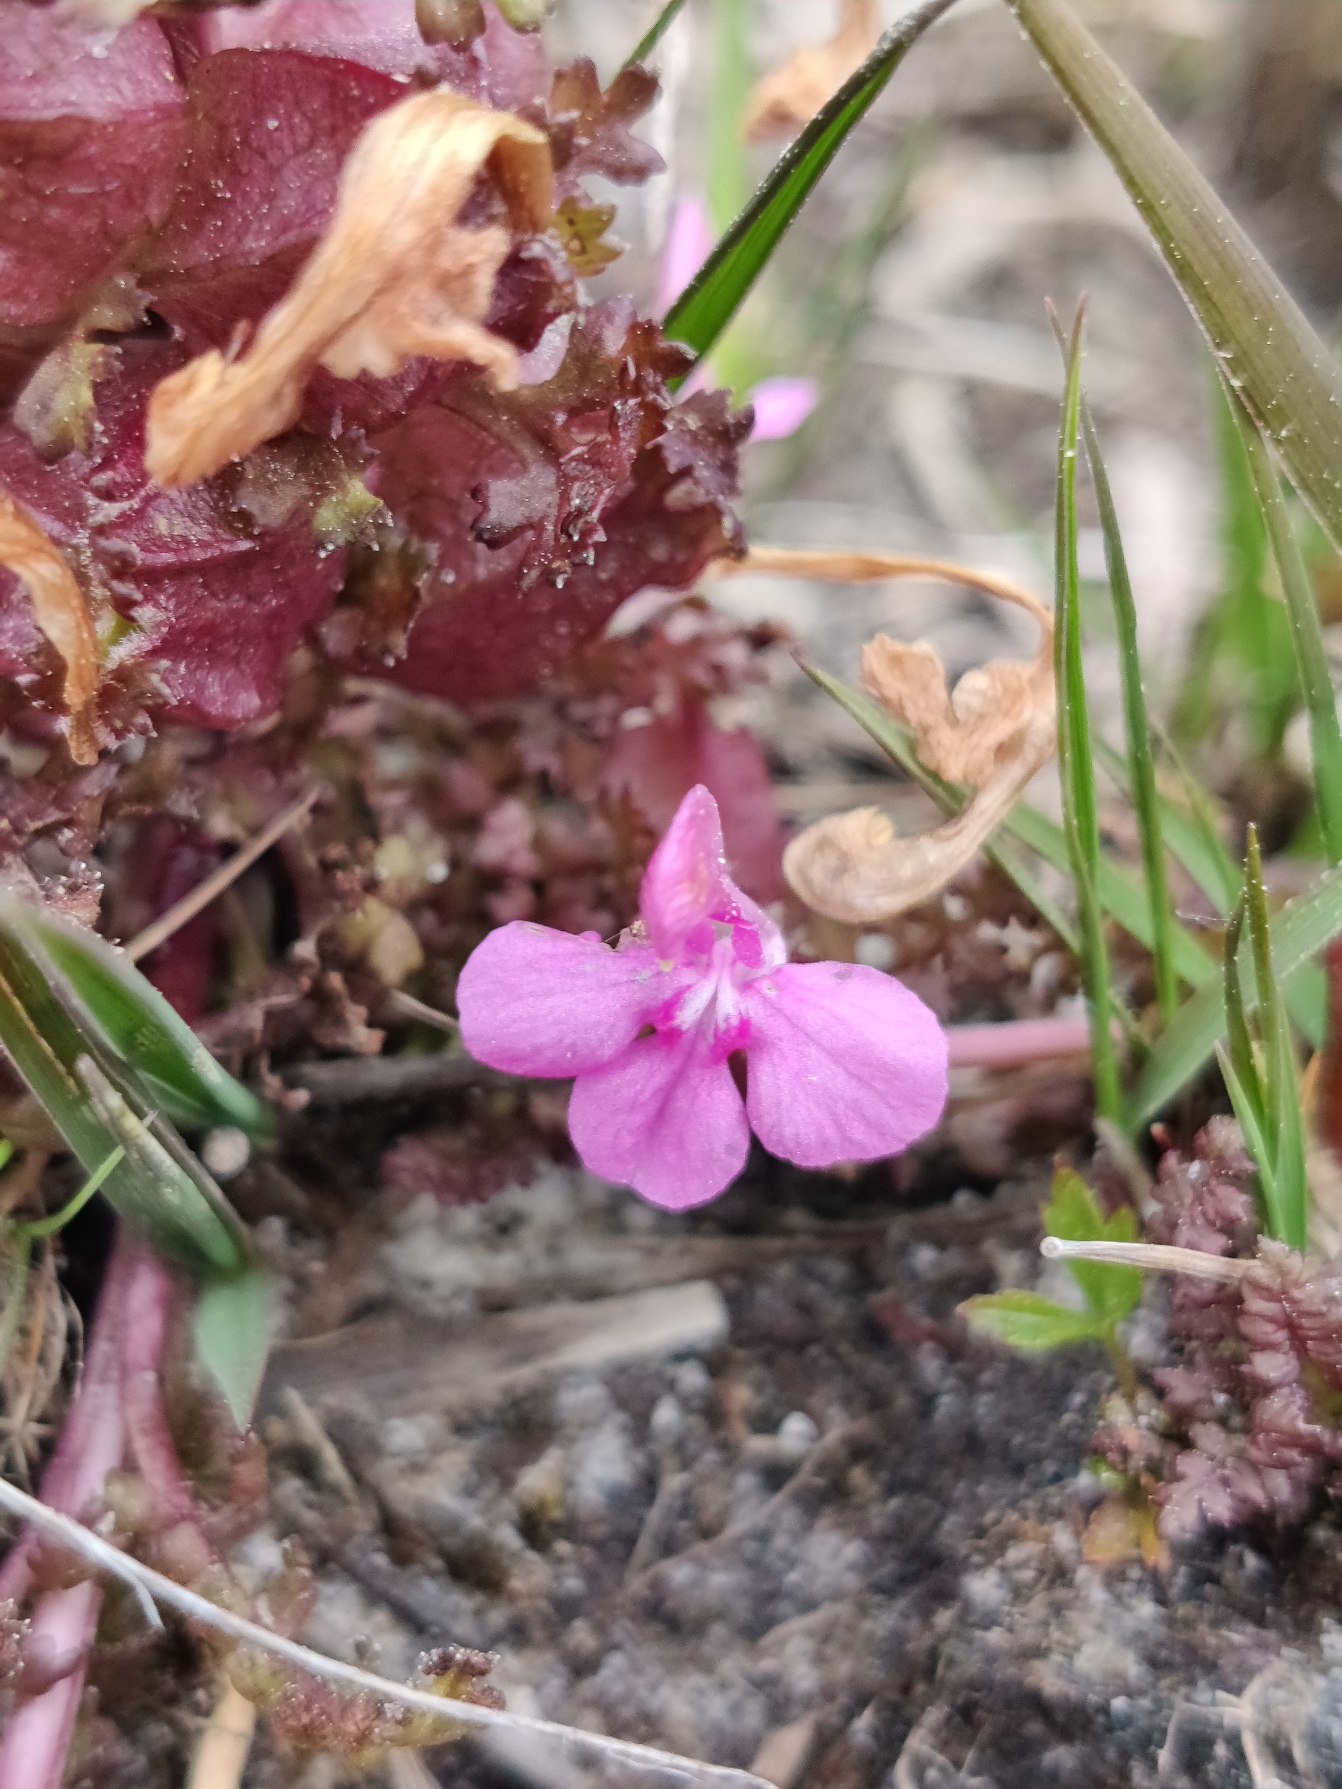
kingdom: Plantae
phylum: Tracheophyta
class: Magnoliopsida
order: Lamiales
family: Orobanchaceae
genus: Pedicularis
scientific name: Pedicularis sylvatica
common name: Mose-troldurt
